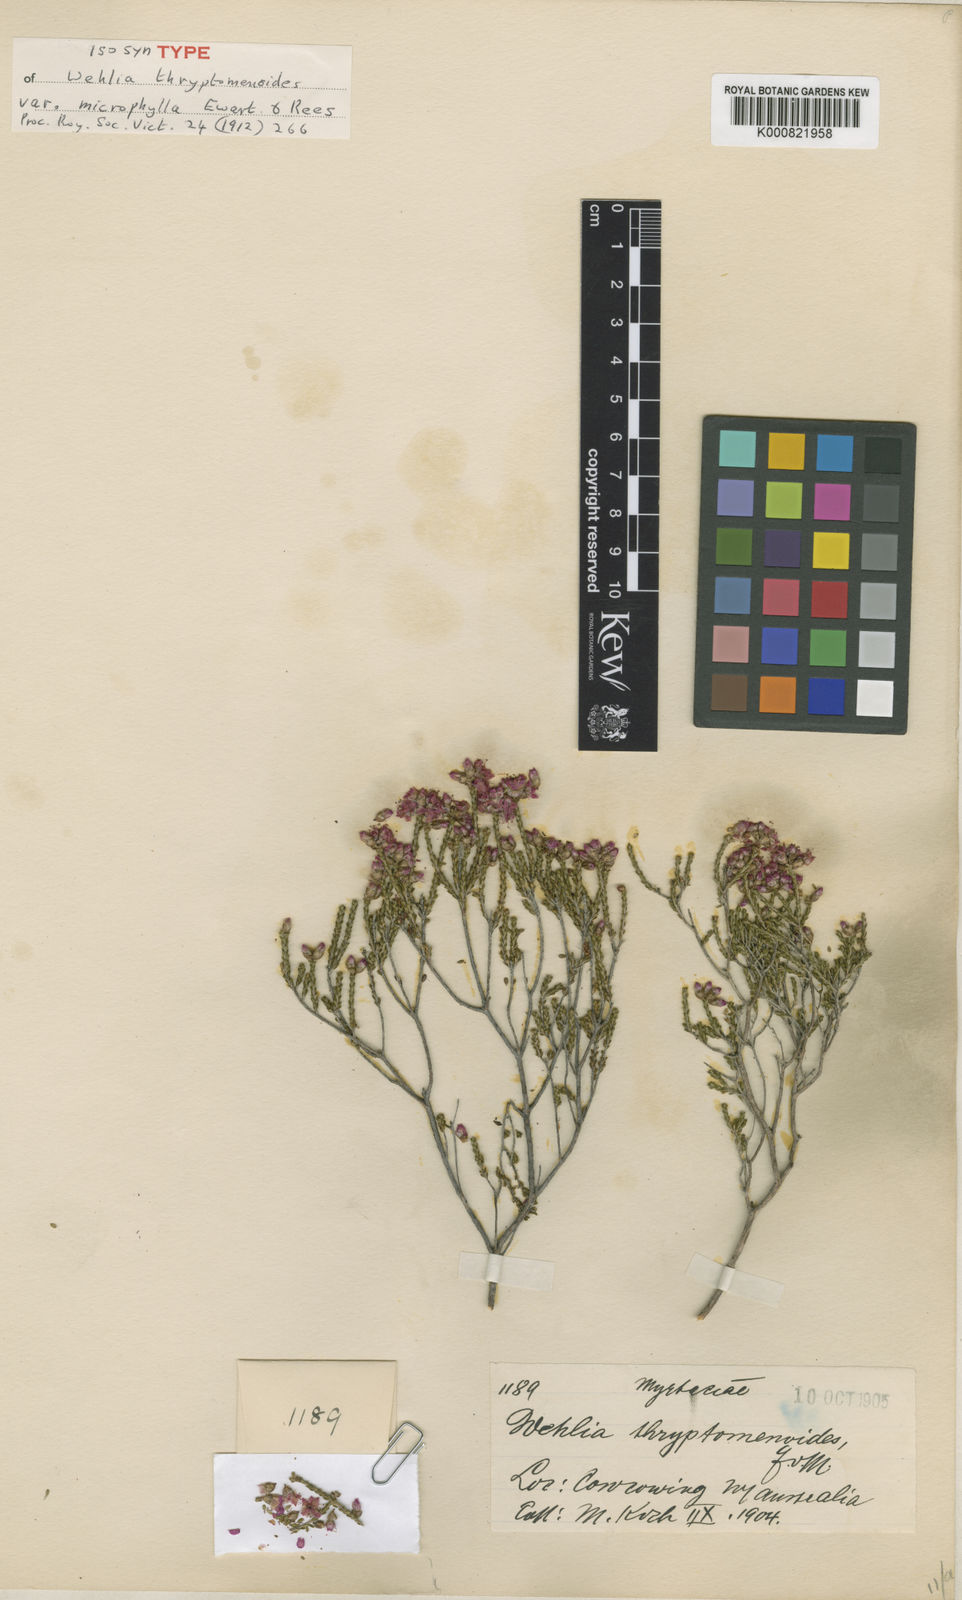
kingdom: Plantae
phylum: Tracheophyta
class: Magnoliopsida
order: Myrtales
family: Myrtaceae
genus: Homalocalyx
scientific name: Homalocalyx thryptomenoides
